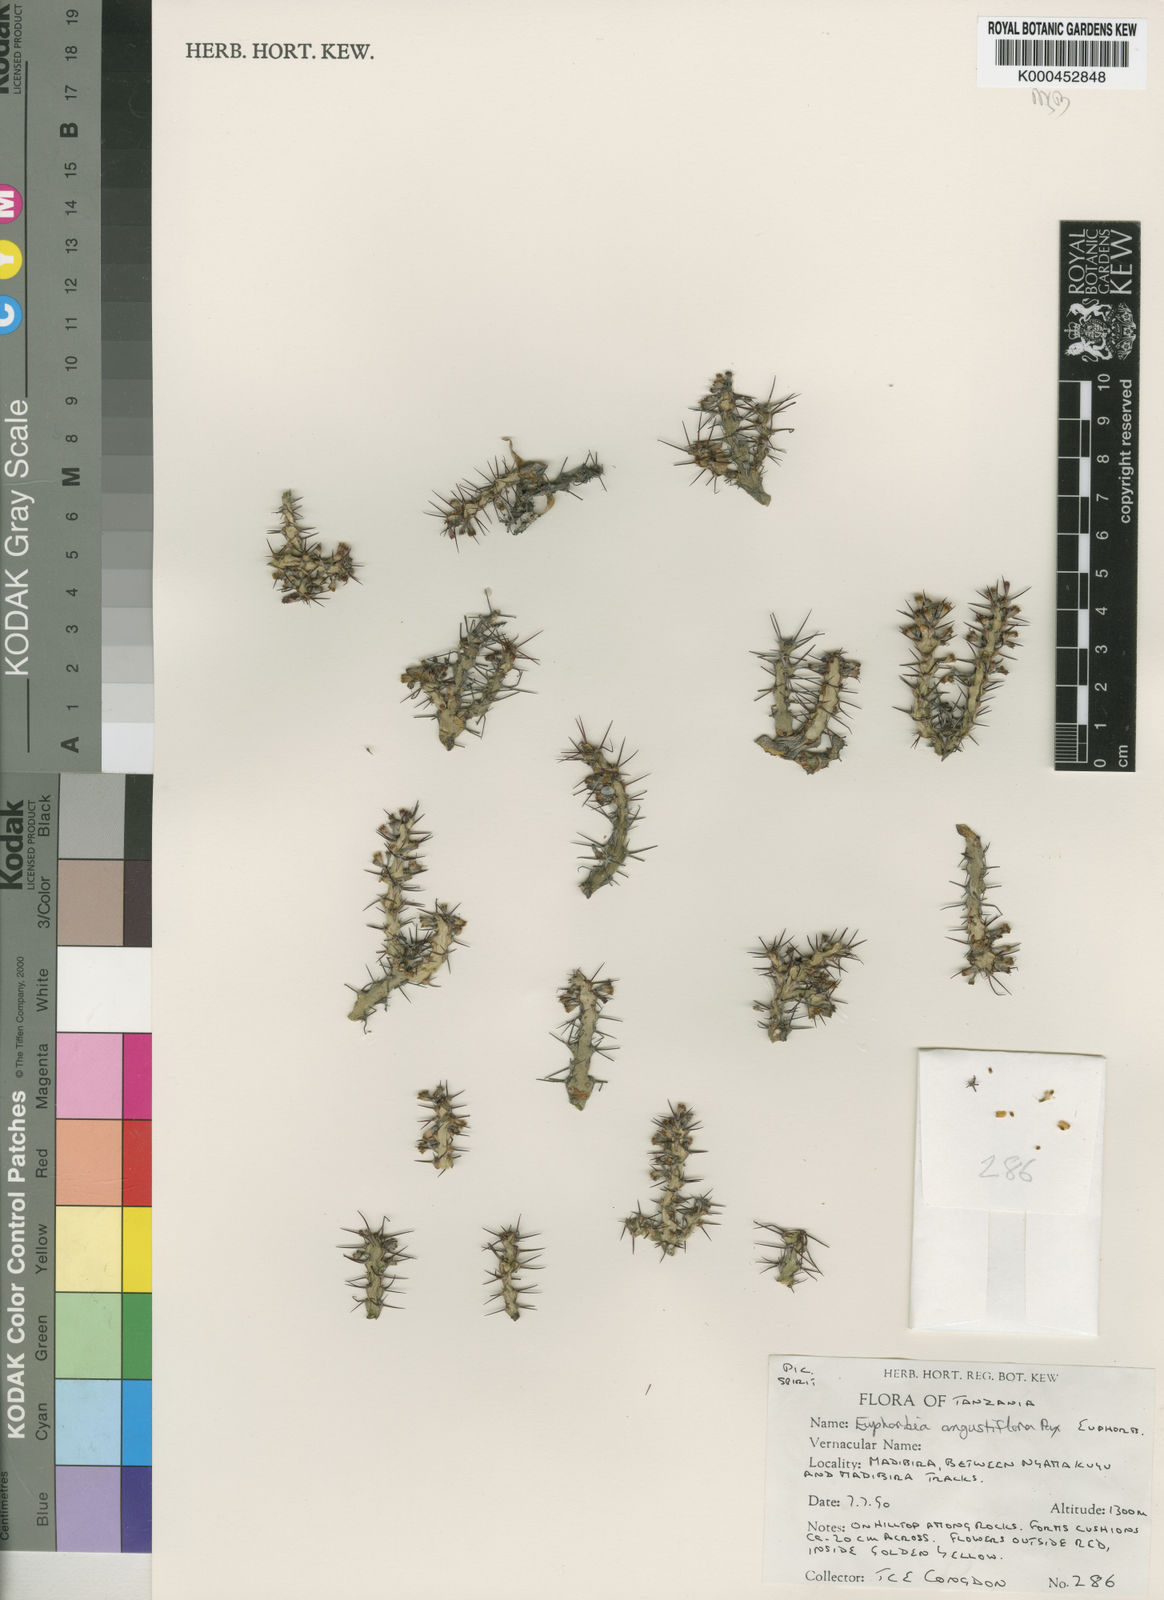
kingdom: Plantae
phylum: Tracheophyta
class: Magnoliopsida
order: Malpighiales
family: Euphorbiaceae
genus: Euphorbia
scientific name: Euphorbia angustiflora
